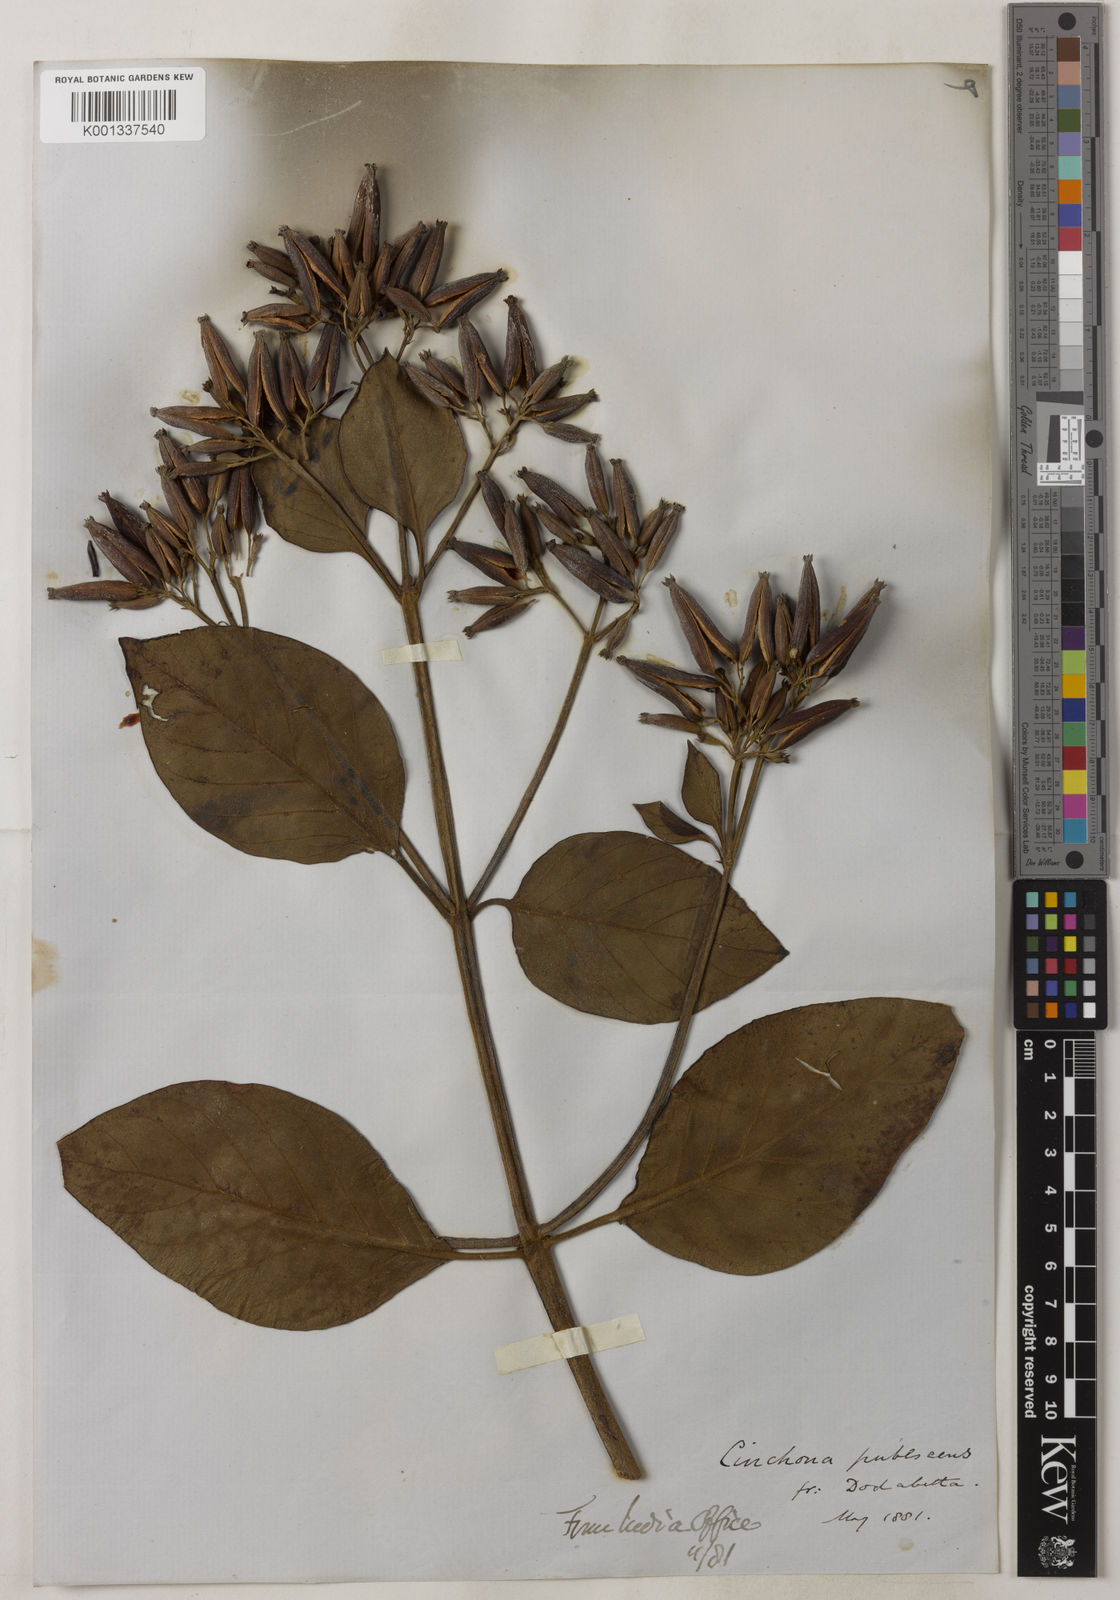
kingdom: Plantae
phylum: Tracheophyta
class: Magnoliopsida
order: Gentianales
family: Rubiaceae
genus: Cinchona
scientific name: Cinchona
